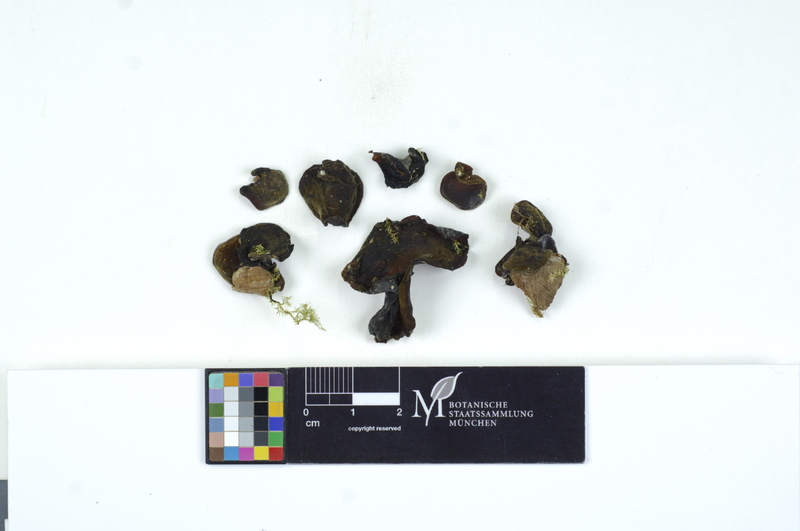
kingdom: Plantae
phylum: Tracheophyta
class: Magnoliopsida
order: Lamiales
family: Oleaceae
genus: Fraxinus
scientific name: Fraxinus
